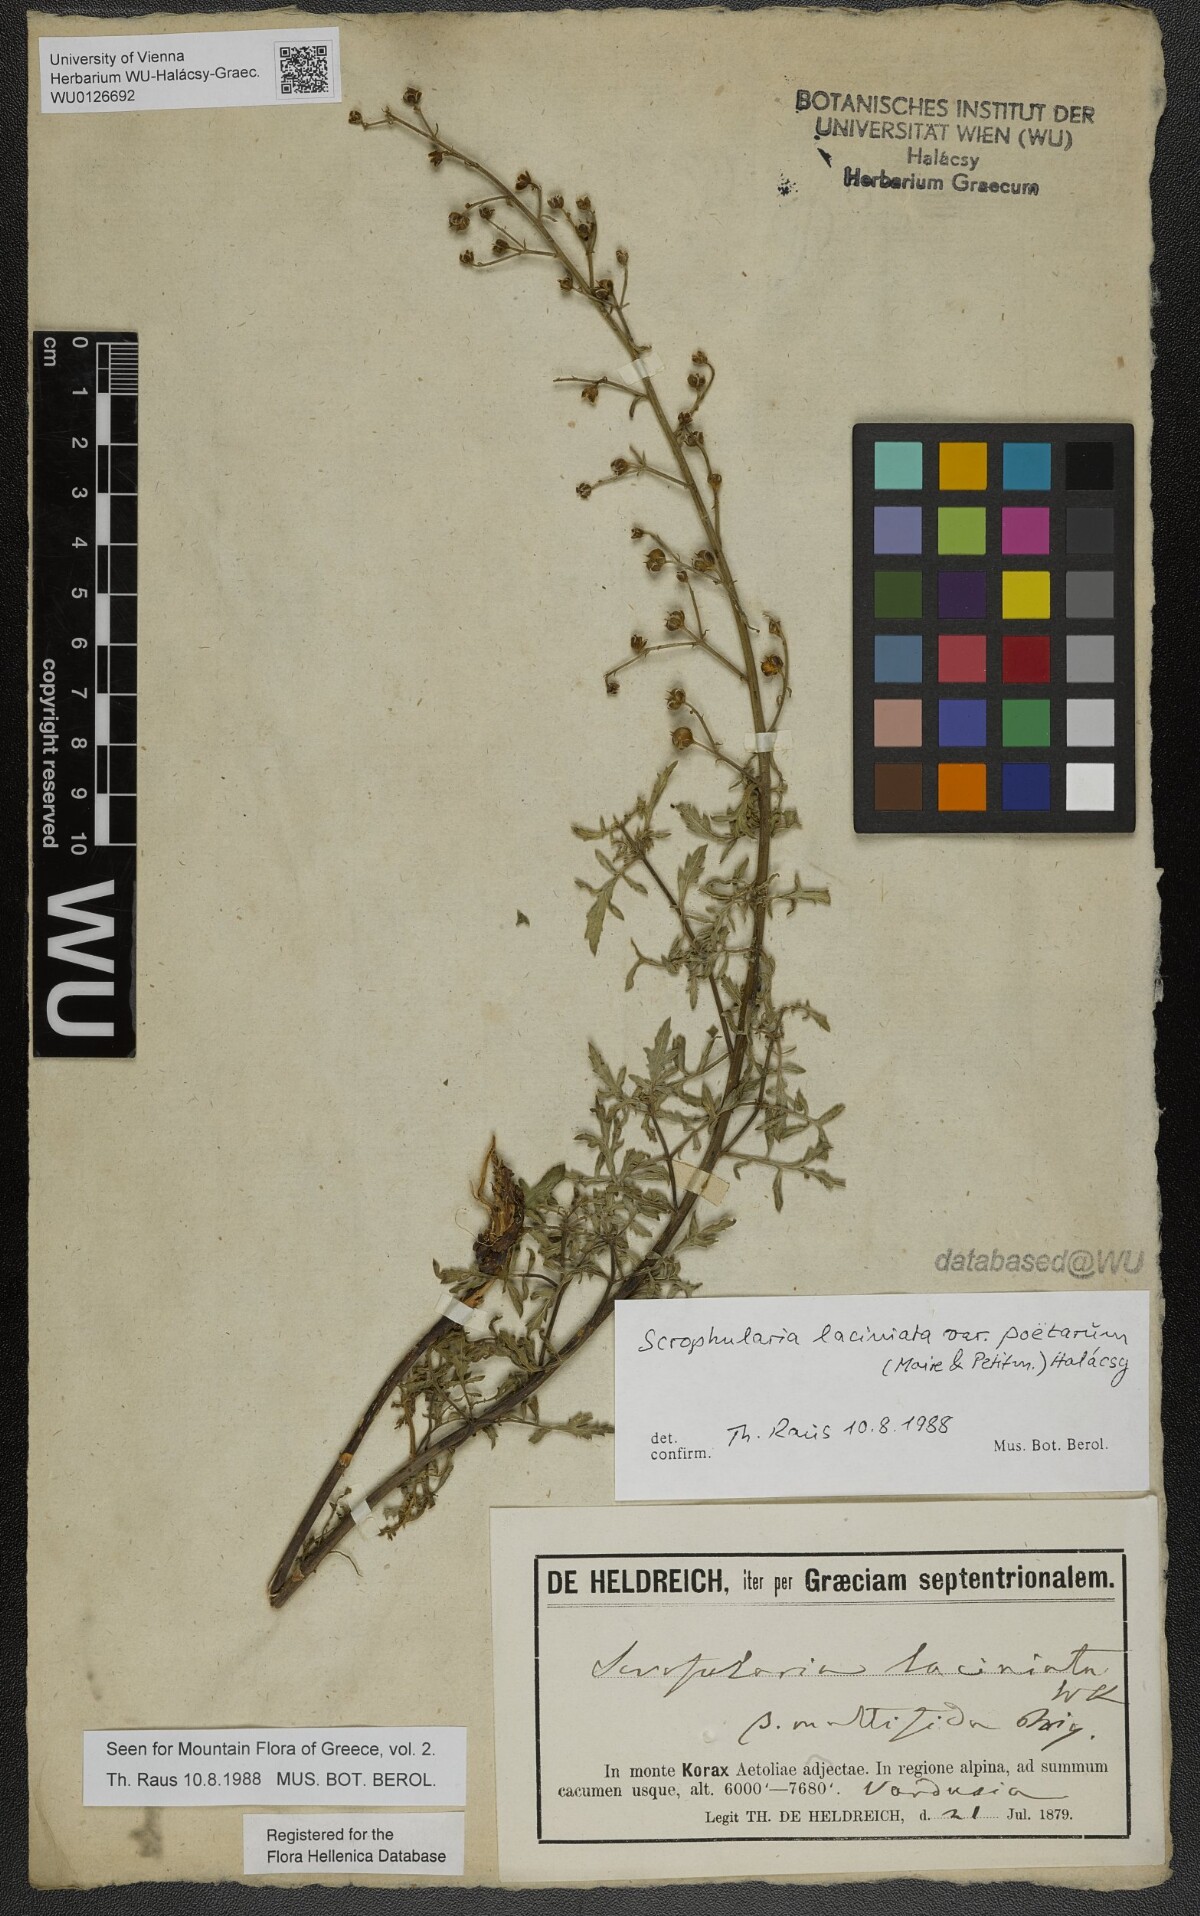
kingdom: Plantae
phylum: Tracheophyta
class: Magnoliopsida
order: Lamiales
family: Scrophulariaceae
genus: Scrophularia
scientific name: Scrophularia laciniata
